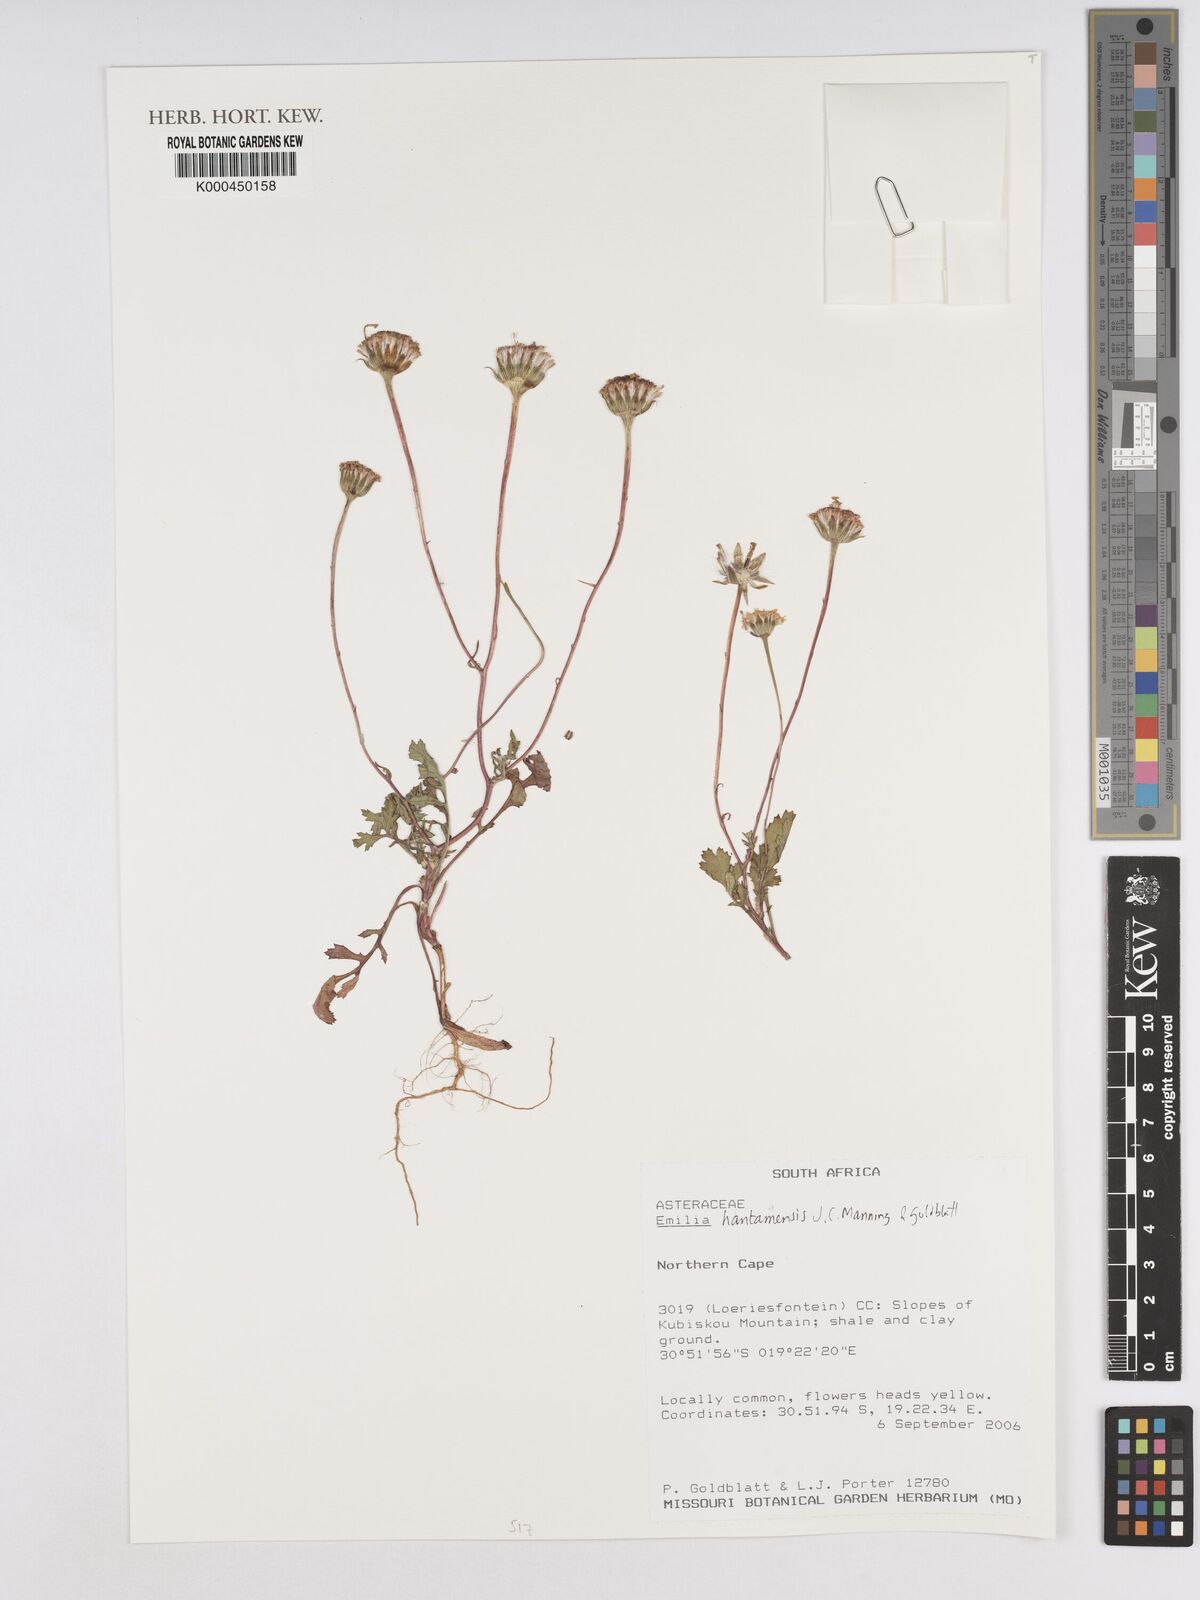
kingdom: Plantae
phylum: Tracheophyta
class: Magnoliopsida
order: Asterales
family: Asteraceae
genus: Bertilia
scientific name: Bertilia hantamensis
